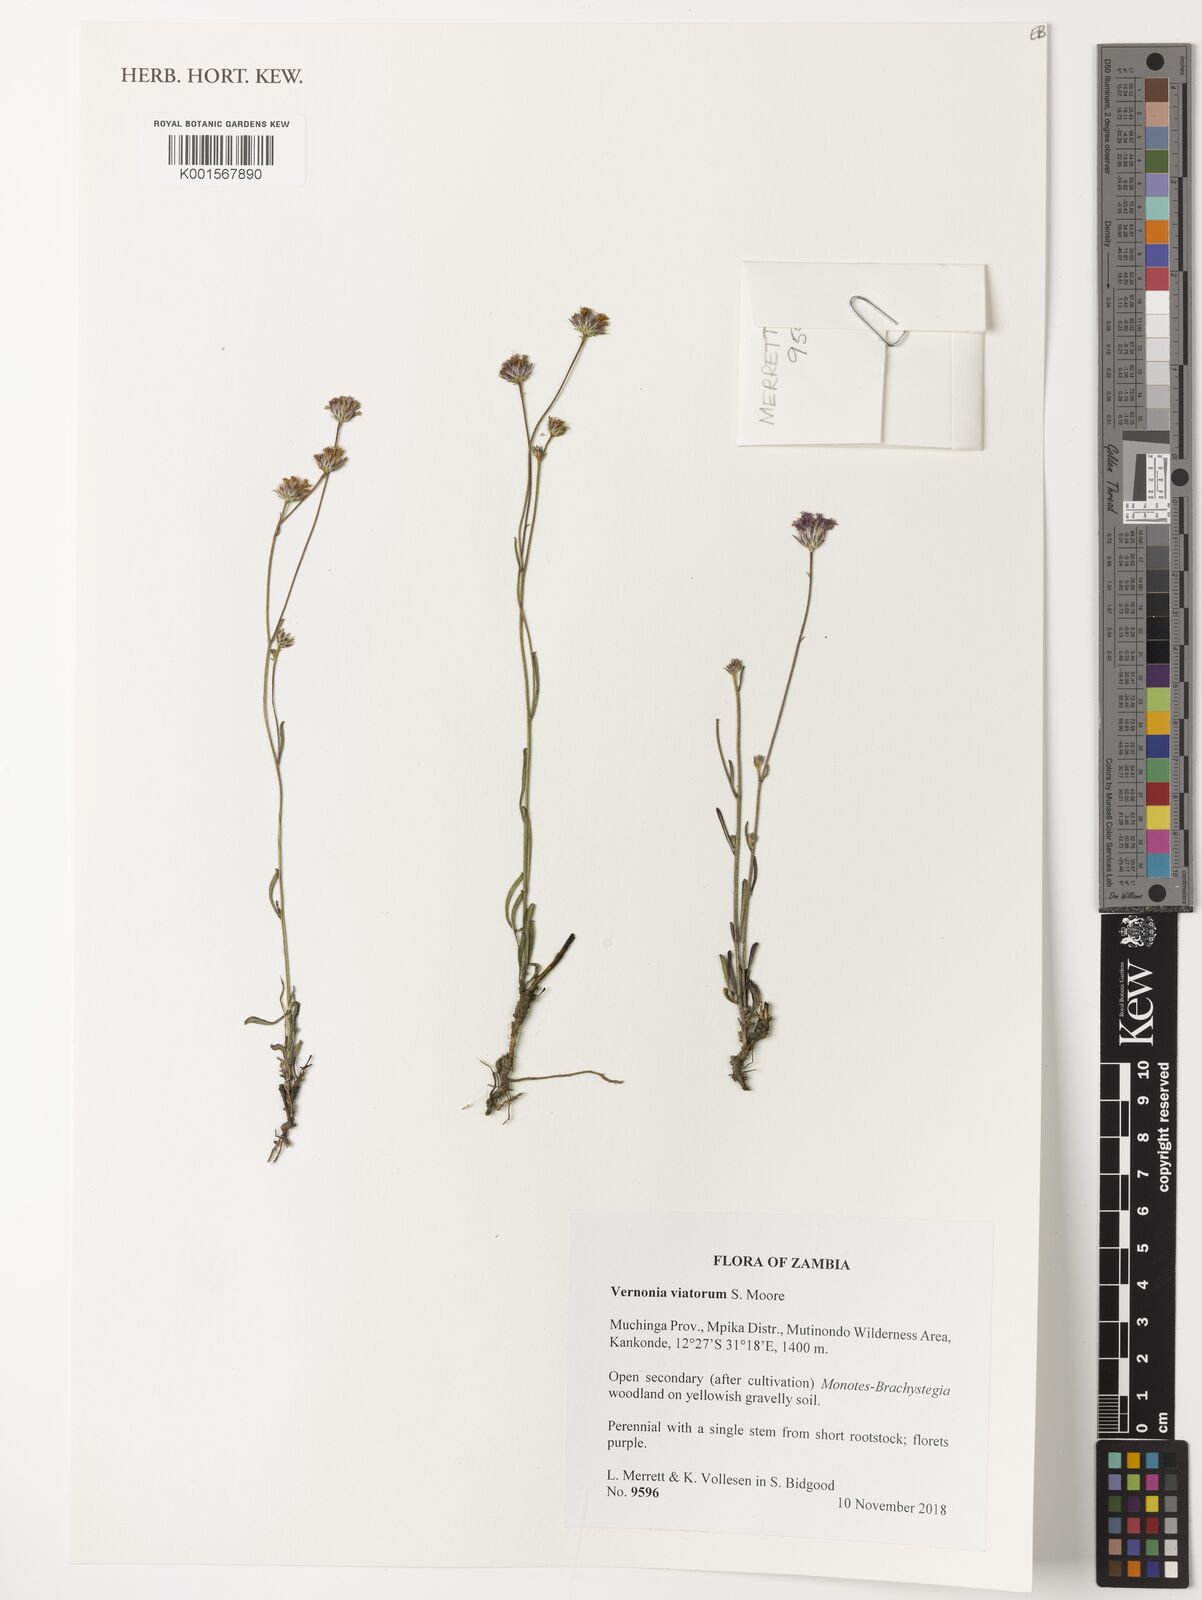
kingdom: Plantae
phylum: Tracheophyta
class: Magnoliopsida
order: Asterales
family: Asteraceae
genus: Vernoniastrum
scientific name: Vernoniastrum viatorum
